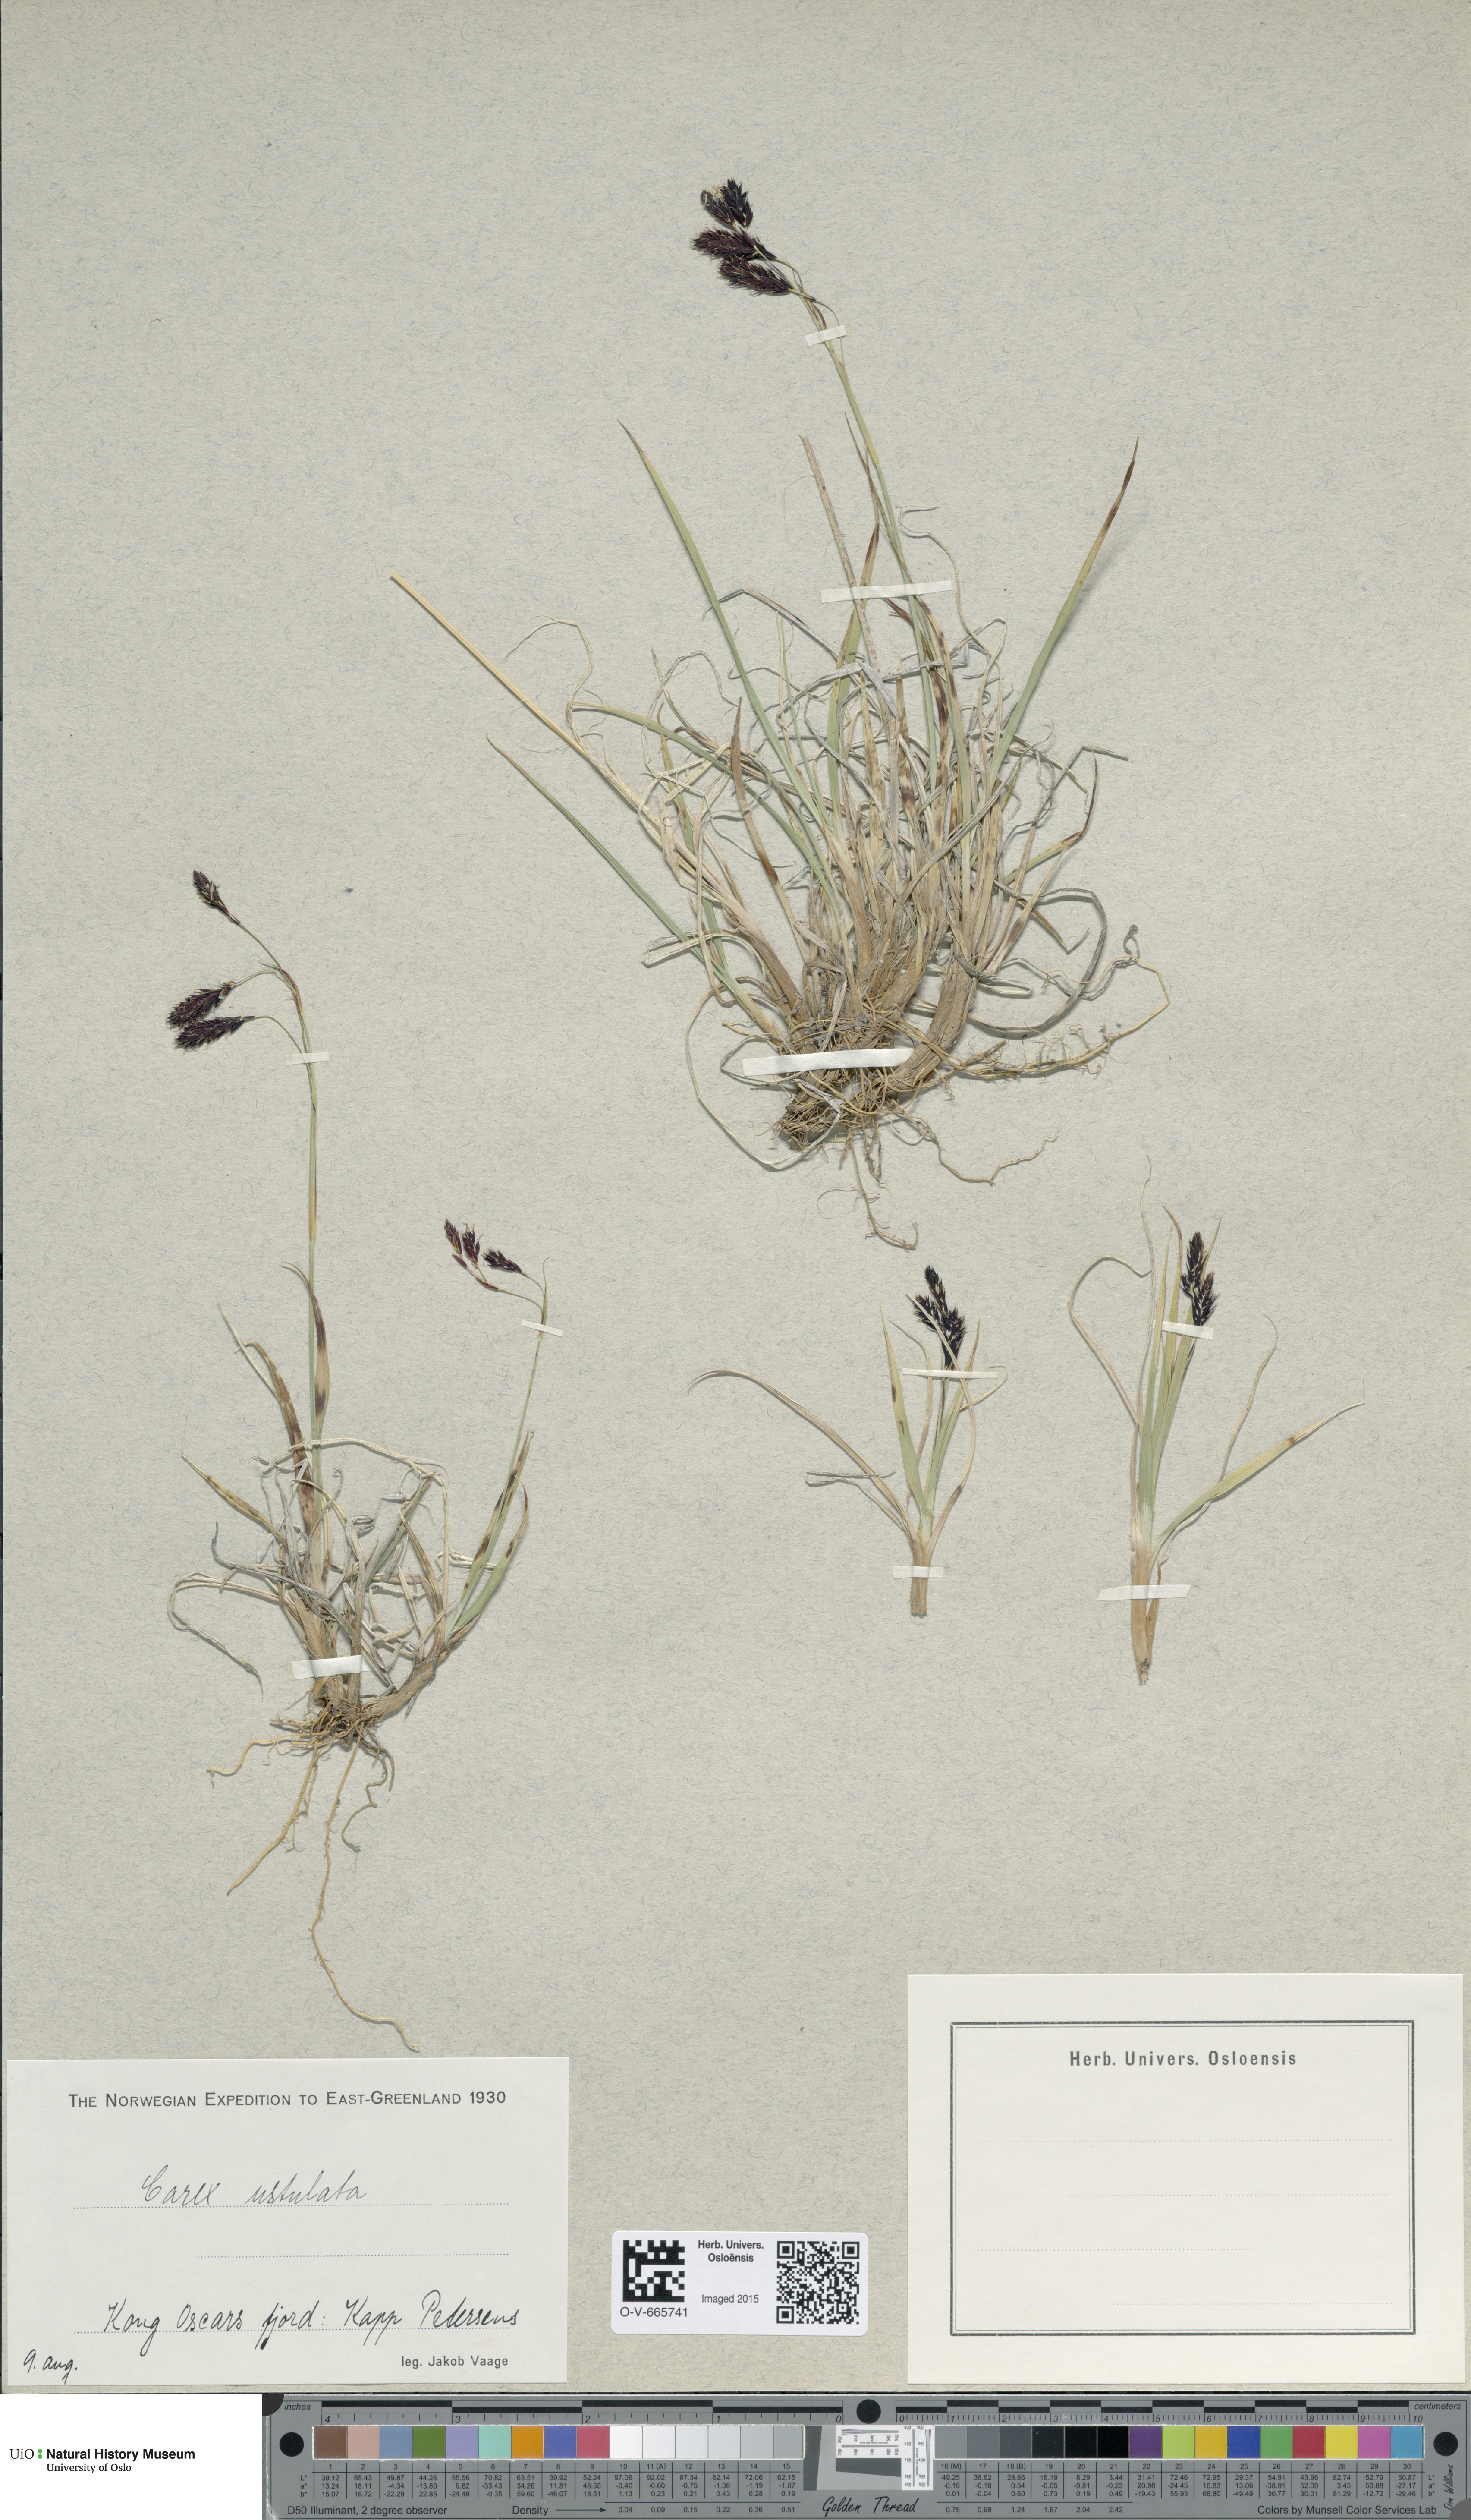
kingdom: Plantae
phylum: Tracheophyta
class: Liliopsida
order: Poales
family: Cyperaceae
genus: Carex
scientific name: Carex atrofusca
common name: Scorched alpine-sedge
